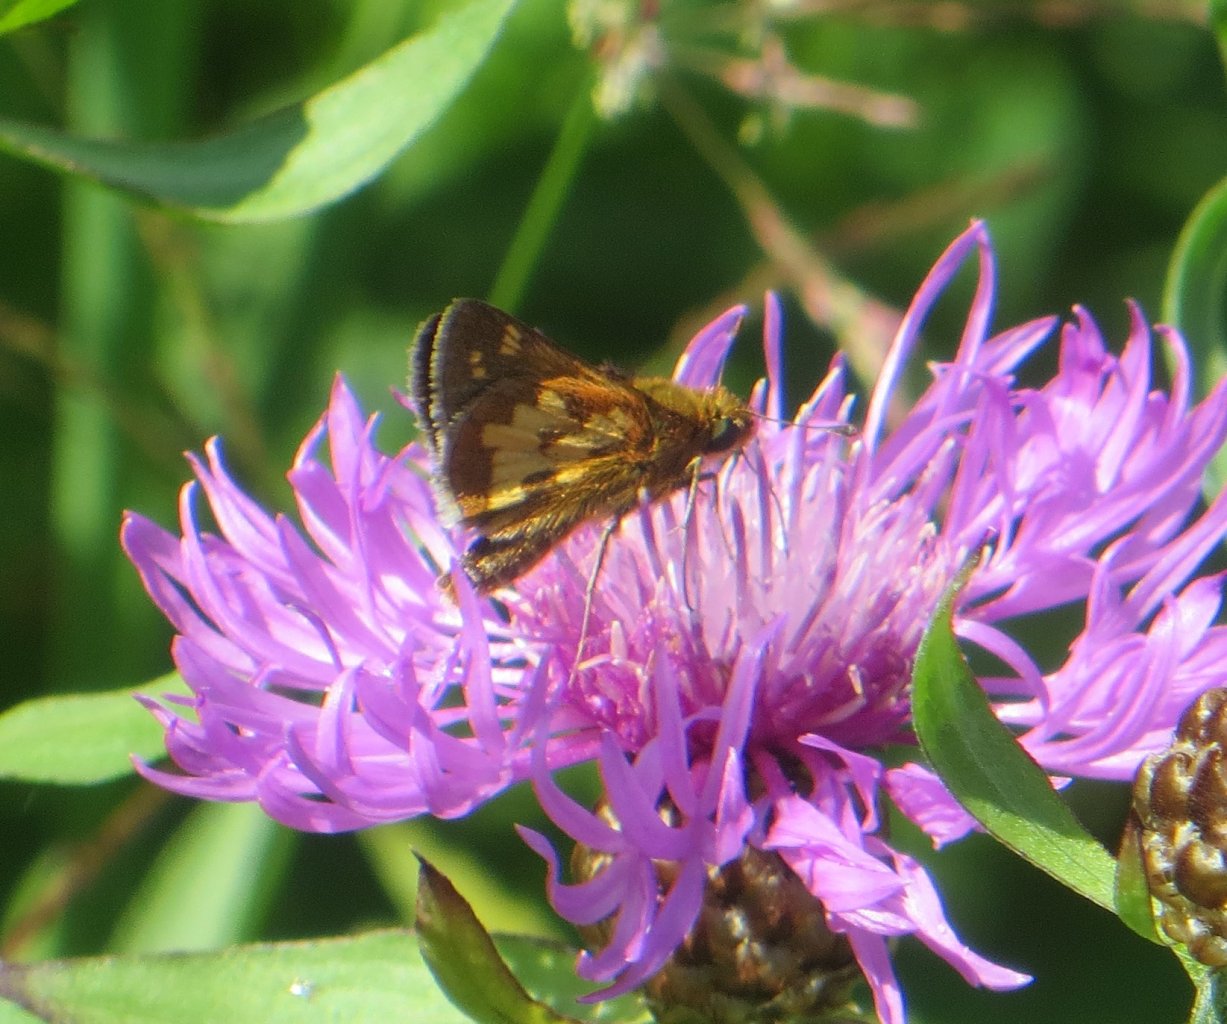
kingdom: Animalia
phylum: Arthropoda
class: Insecta
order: Lepidoptera
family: Hesperiidae
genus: Polites
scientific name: Polites coras
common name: Peck's Skipper
